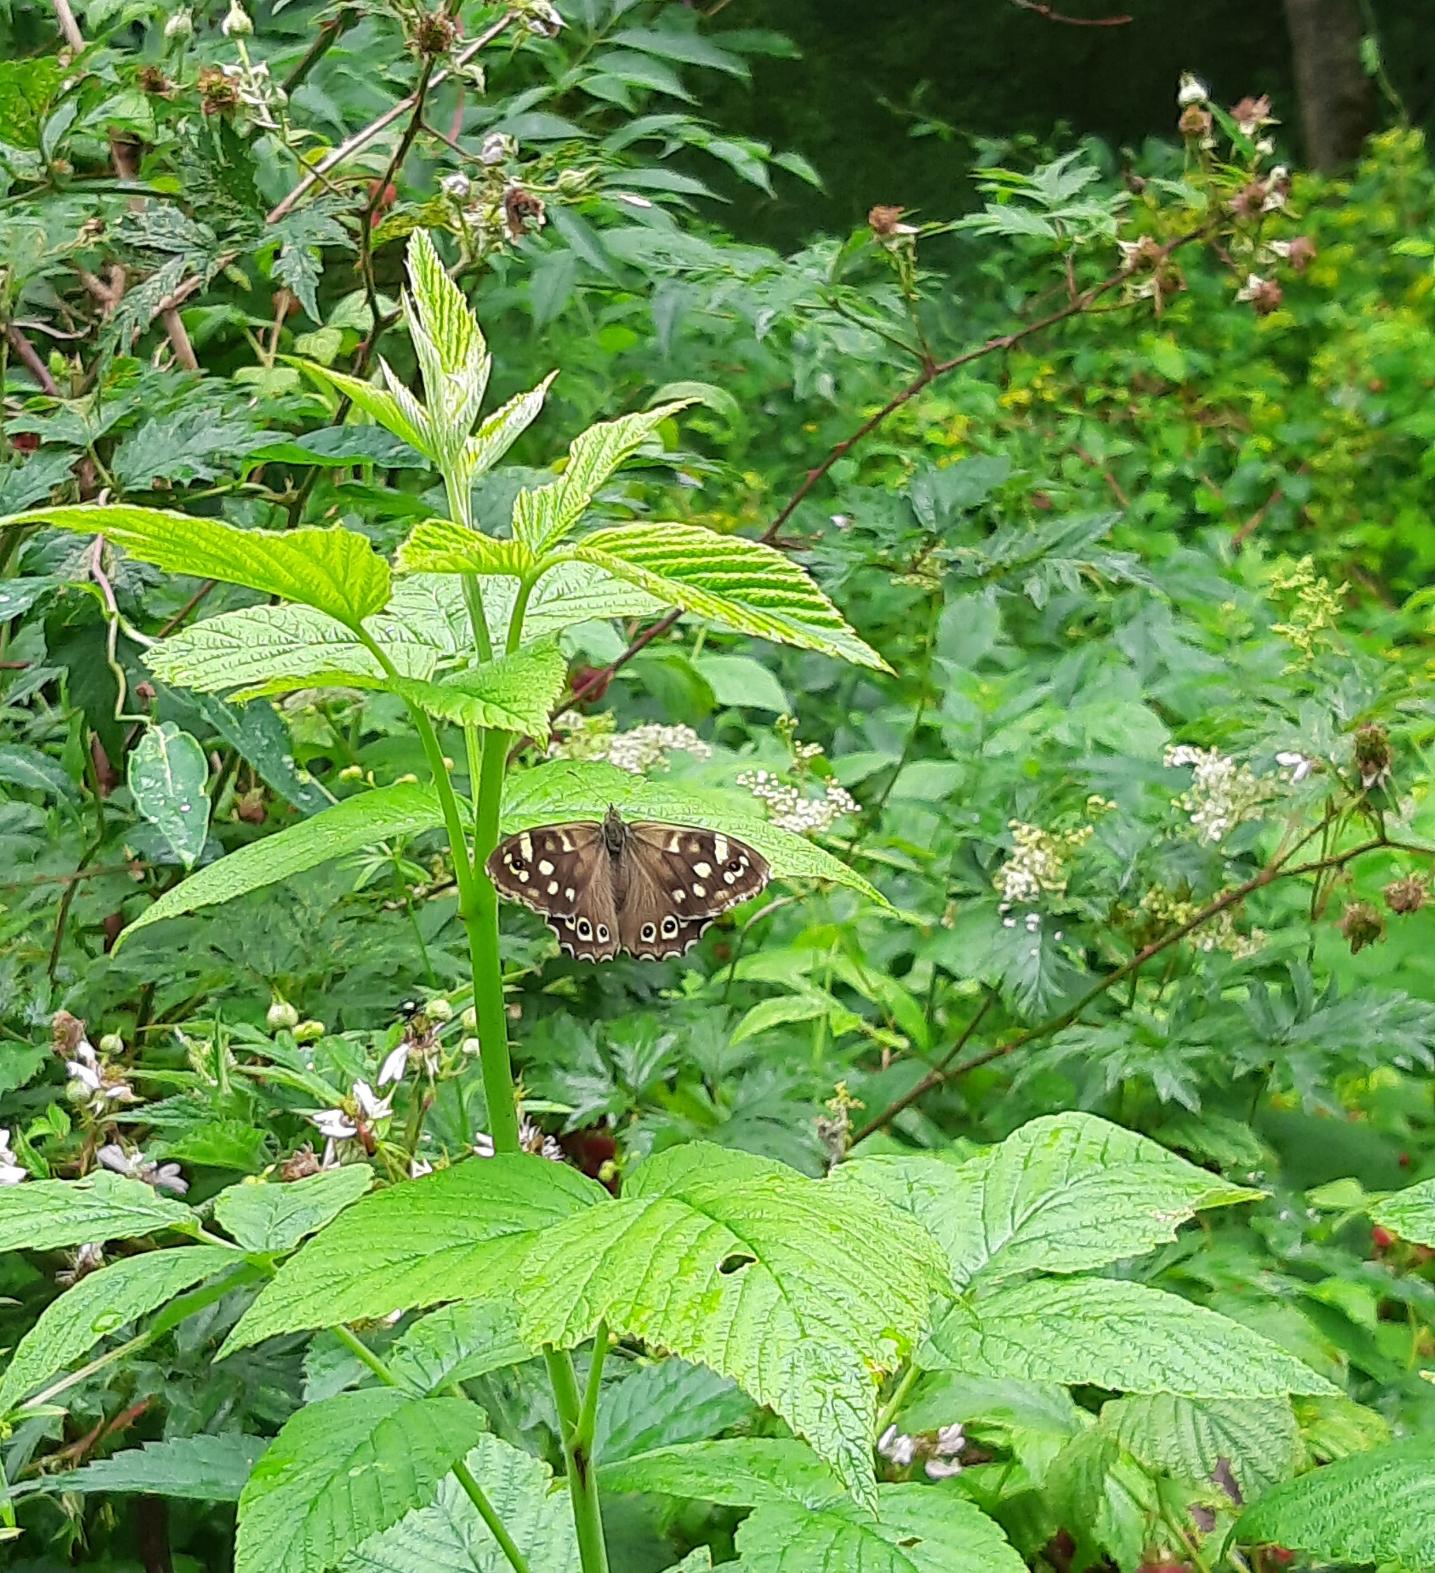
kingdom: Animalia
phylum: Arthropoda
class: Insecta
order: Lepidoptera
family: Nymphalidae
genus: Pararge
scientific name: Pararge aegeria
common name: Skovrandøje
